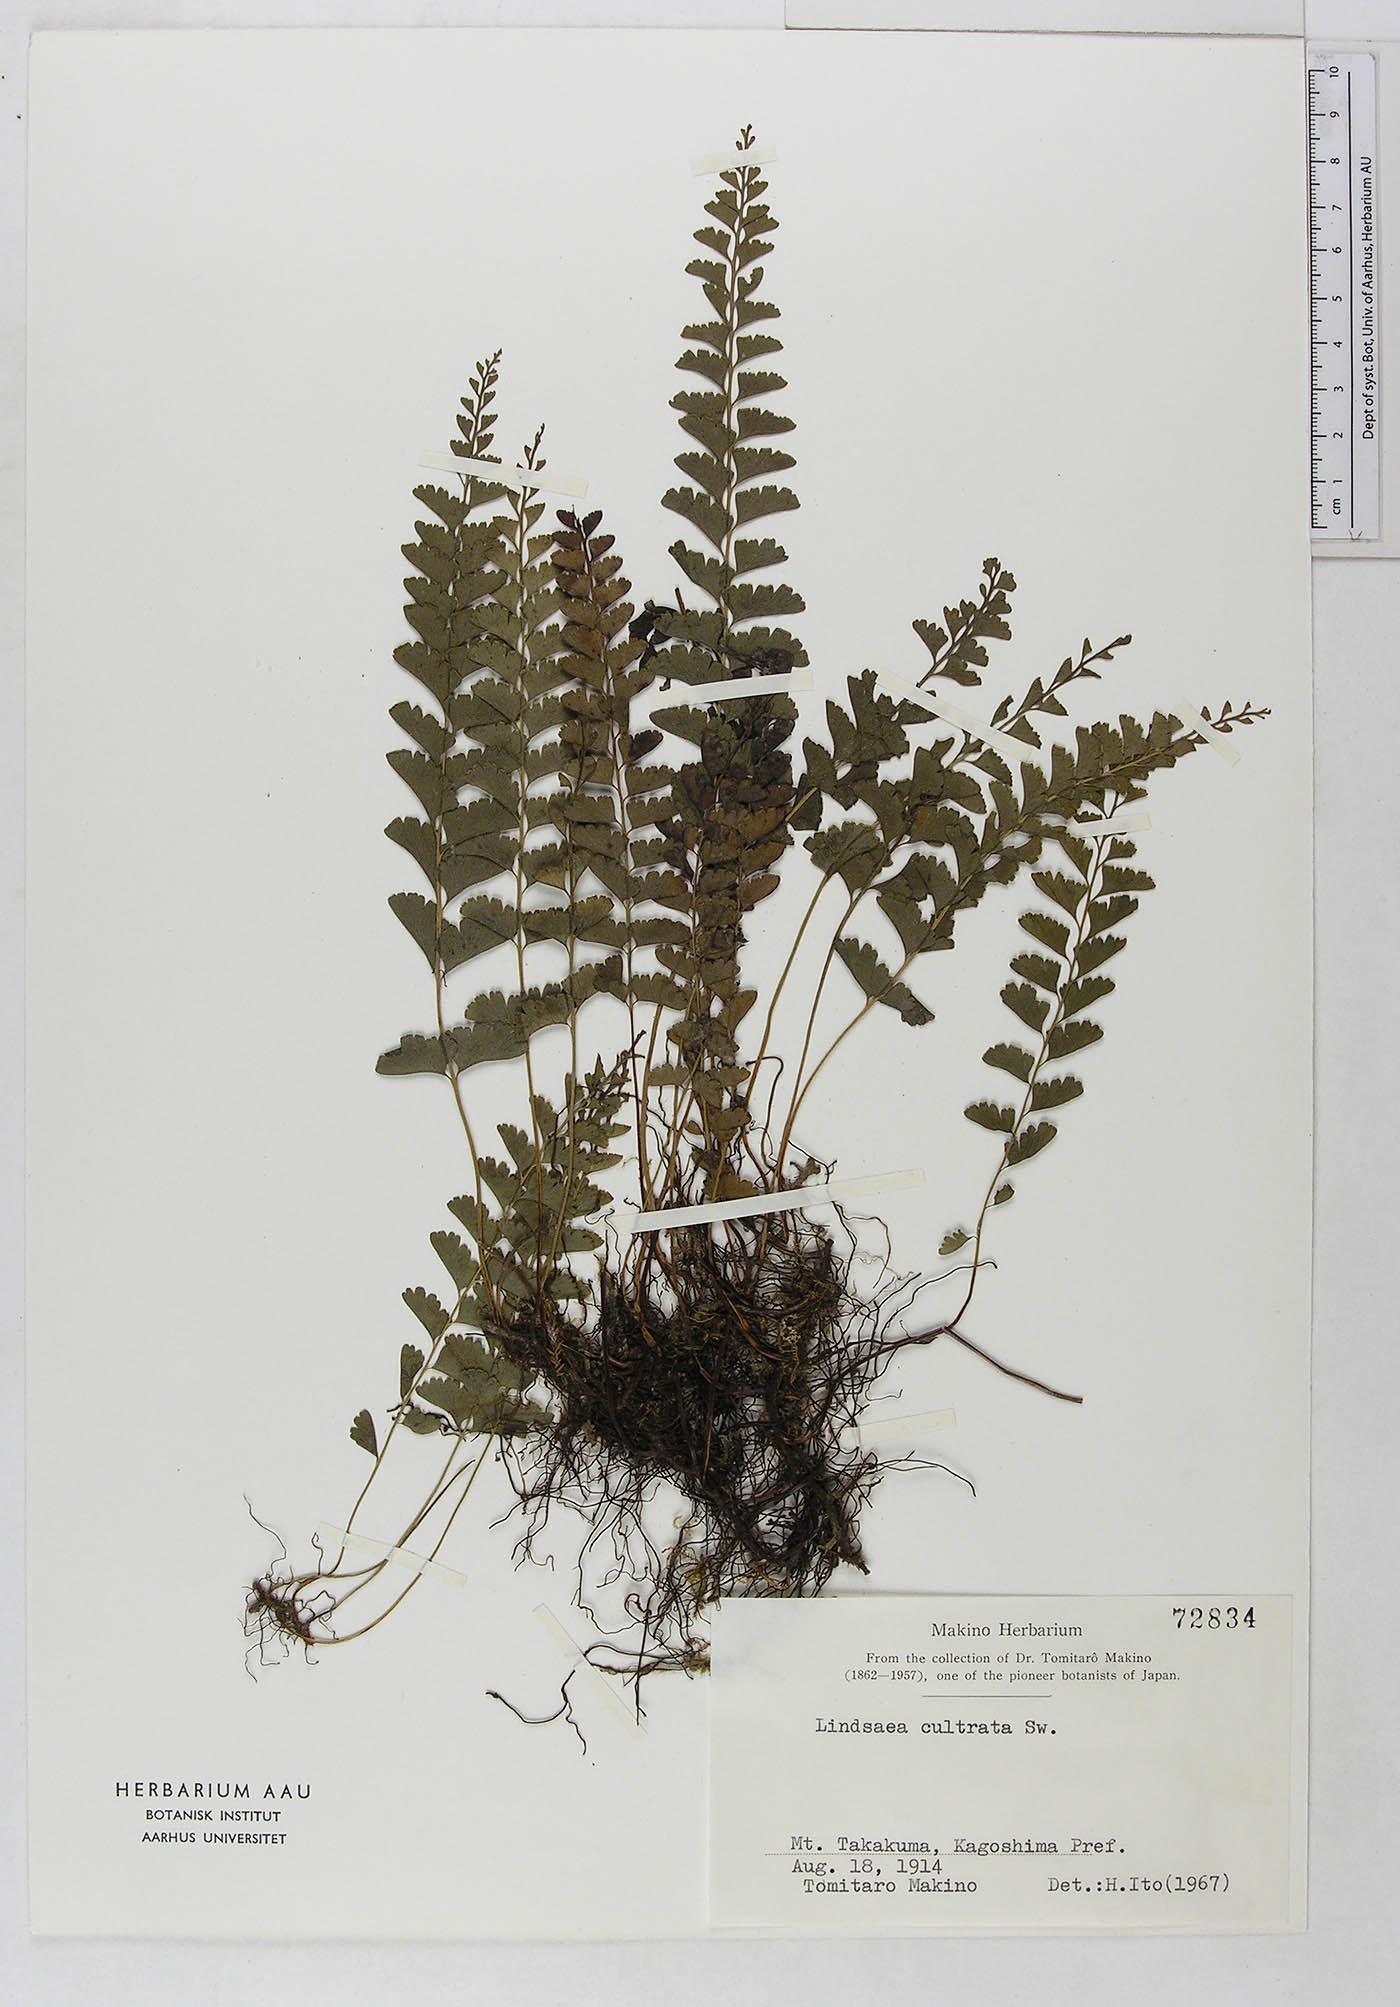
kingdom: Plantae
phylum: Tracheophyta
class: Polypodiopsida
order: Polypodiales
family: Lindsaeaceae
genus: Lindsaea
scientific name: Lindsaea cultrata
